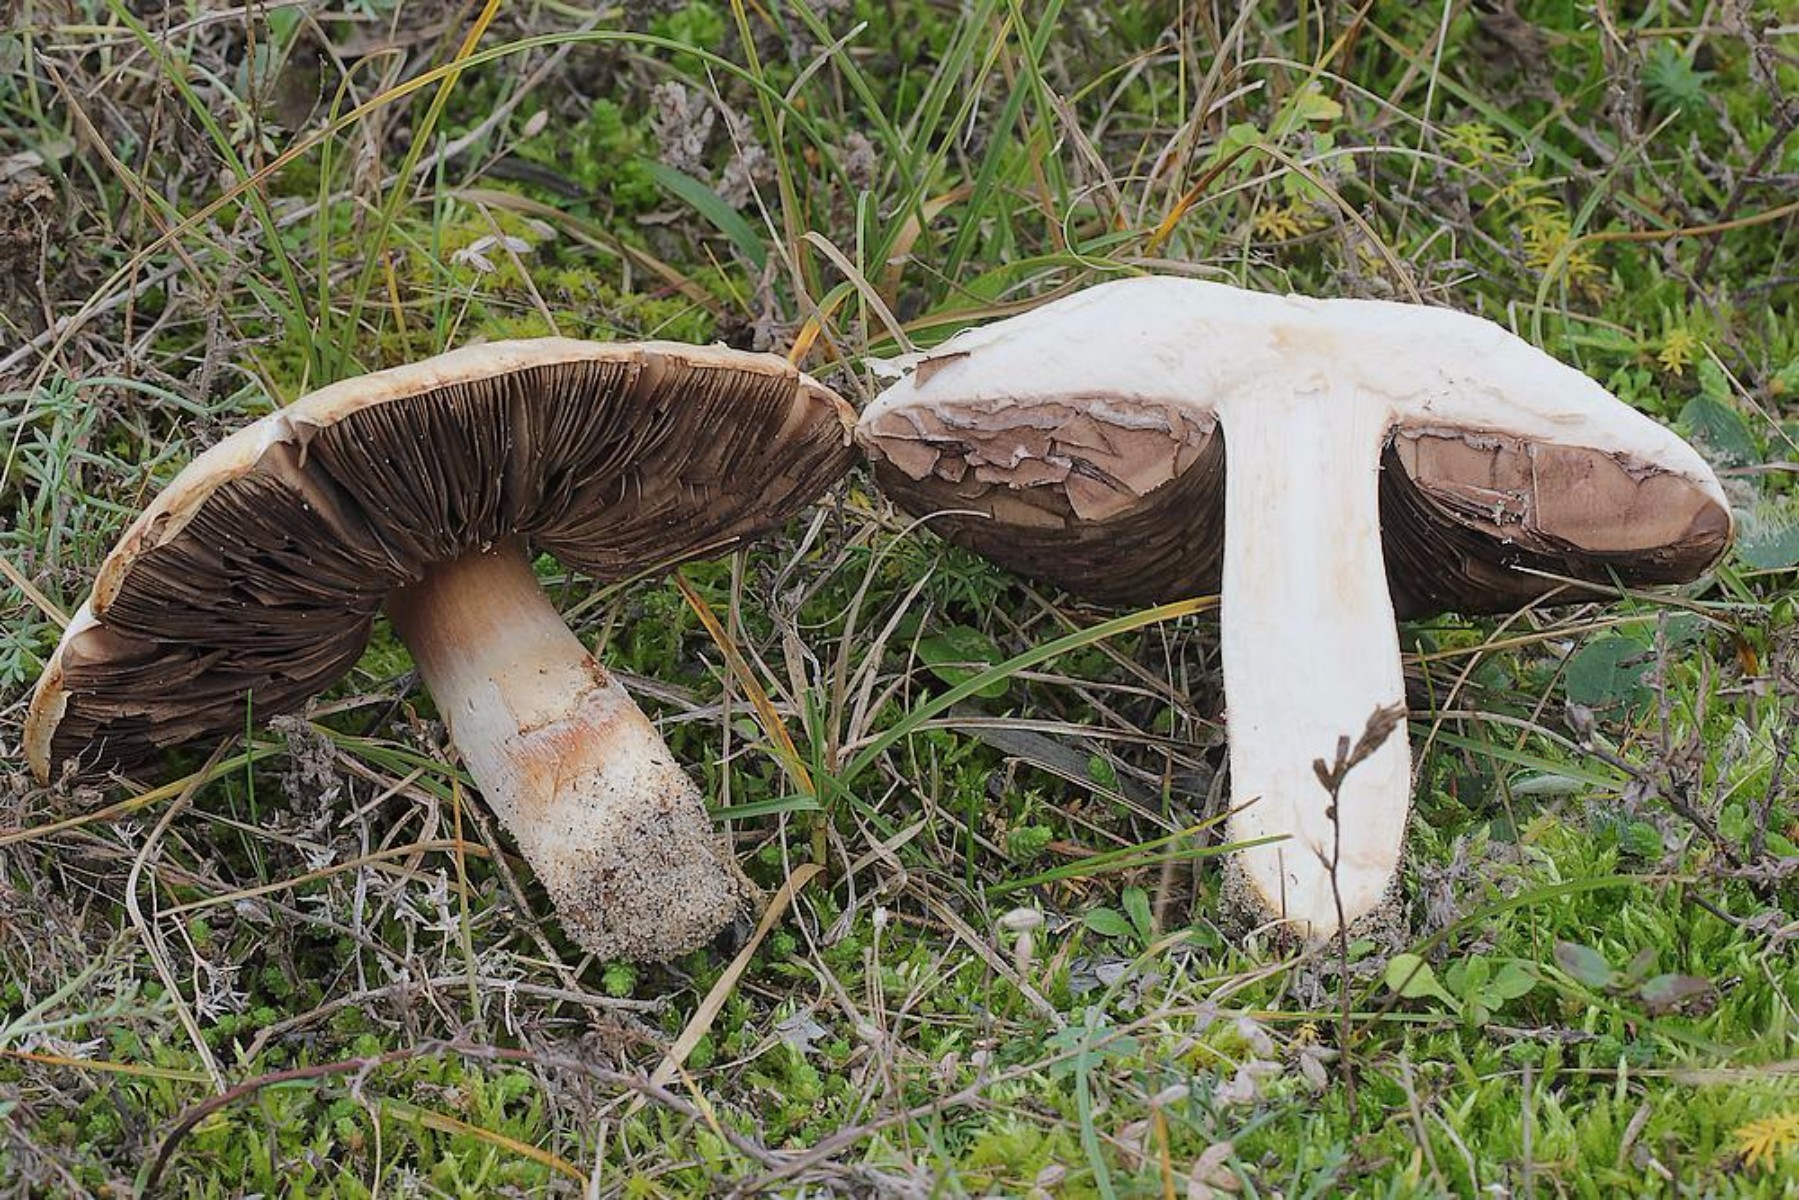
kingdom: Fungi
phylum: Basidiomycota
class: Agaricomycetes
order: Agaricales
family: Agaricaceae
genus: Agaricus
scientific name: Agaricus
